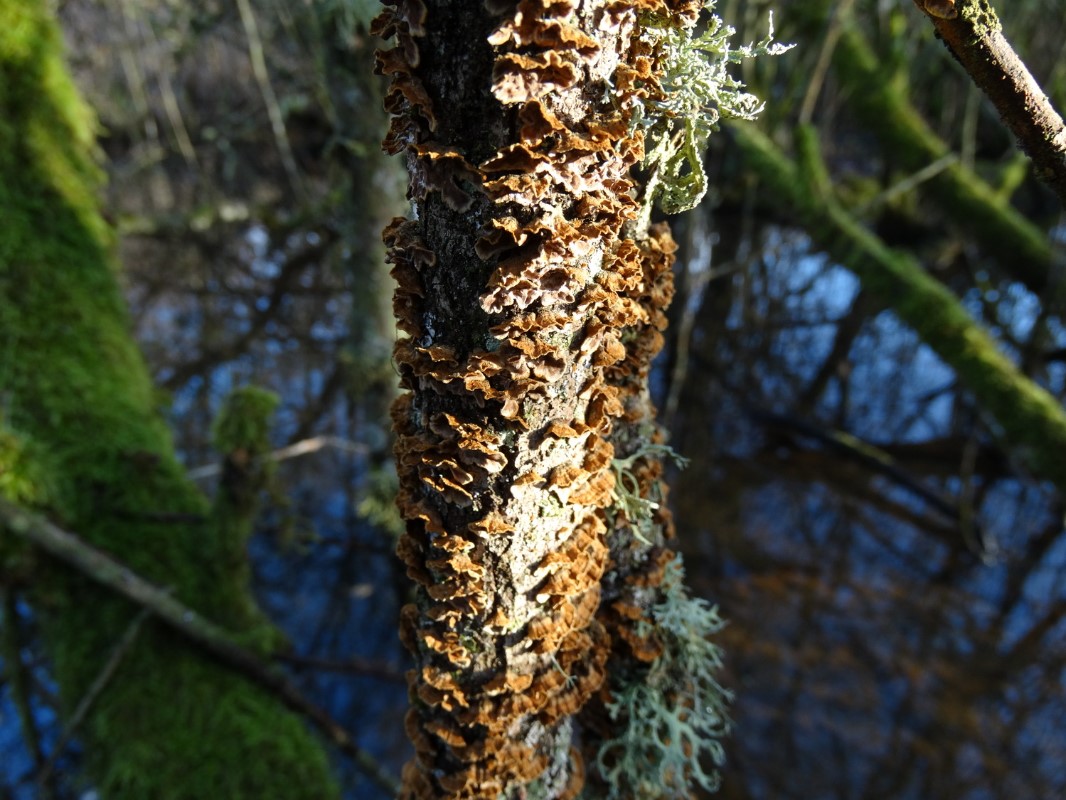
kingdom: Fungi
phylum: Basidiomycota
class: Agaricomycetes
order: Hymenochaetales
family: Hymenochaetaceae
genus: Hydnoporia
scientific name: Hydnoporia tabacina
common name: tobaksbrun ruslædersvamp
